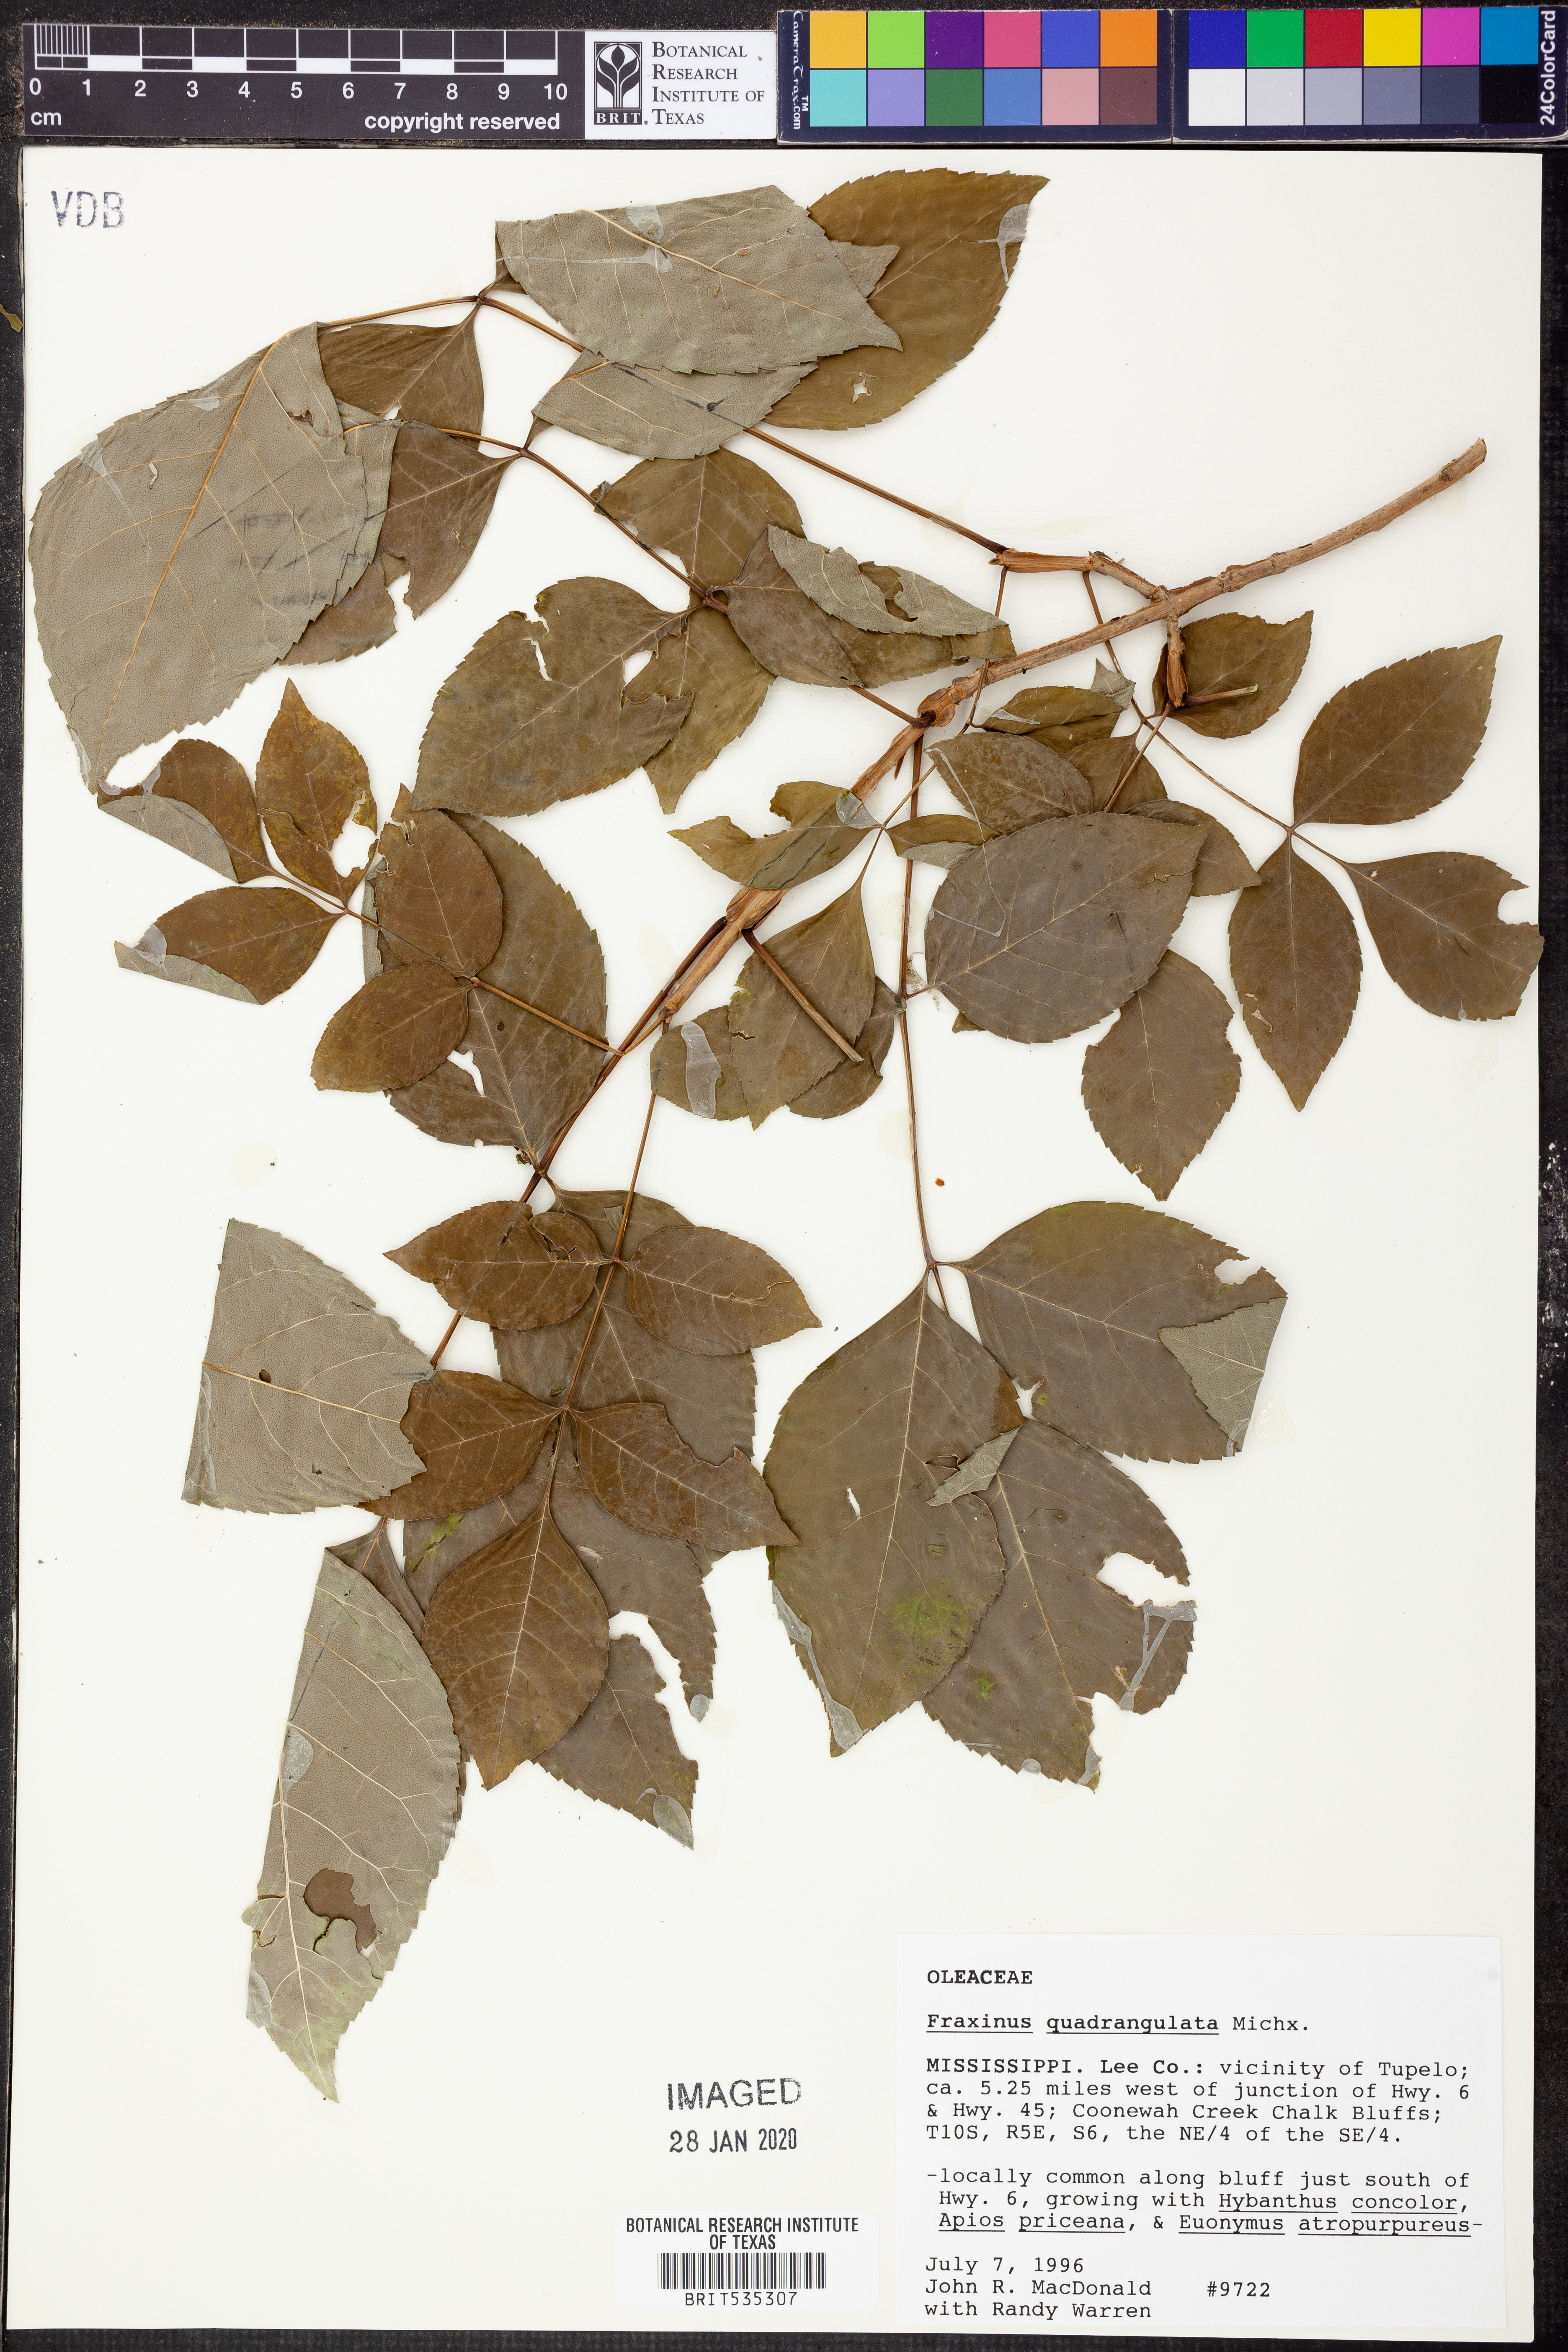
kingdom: Plantae
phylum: Tracheophyta
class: Magnoliopsida
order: Lamiales
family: Oleaceae
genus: Fraxinus
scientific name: Fraxinus quadrangulata
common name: Blue ash
